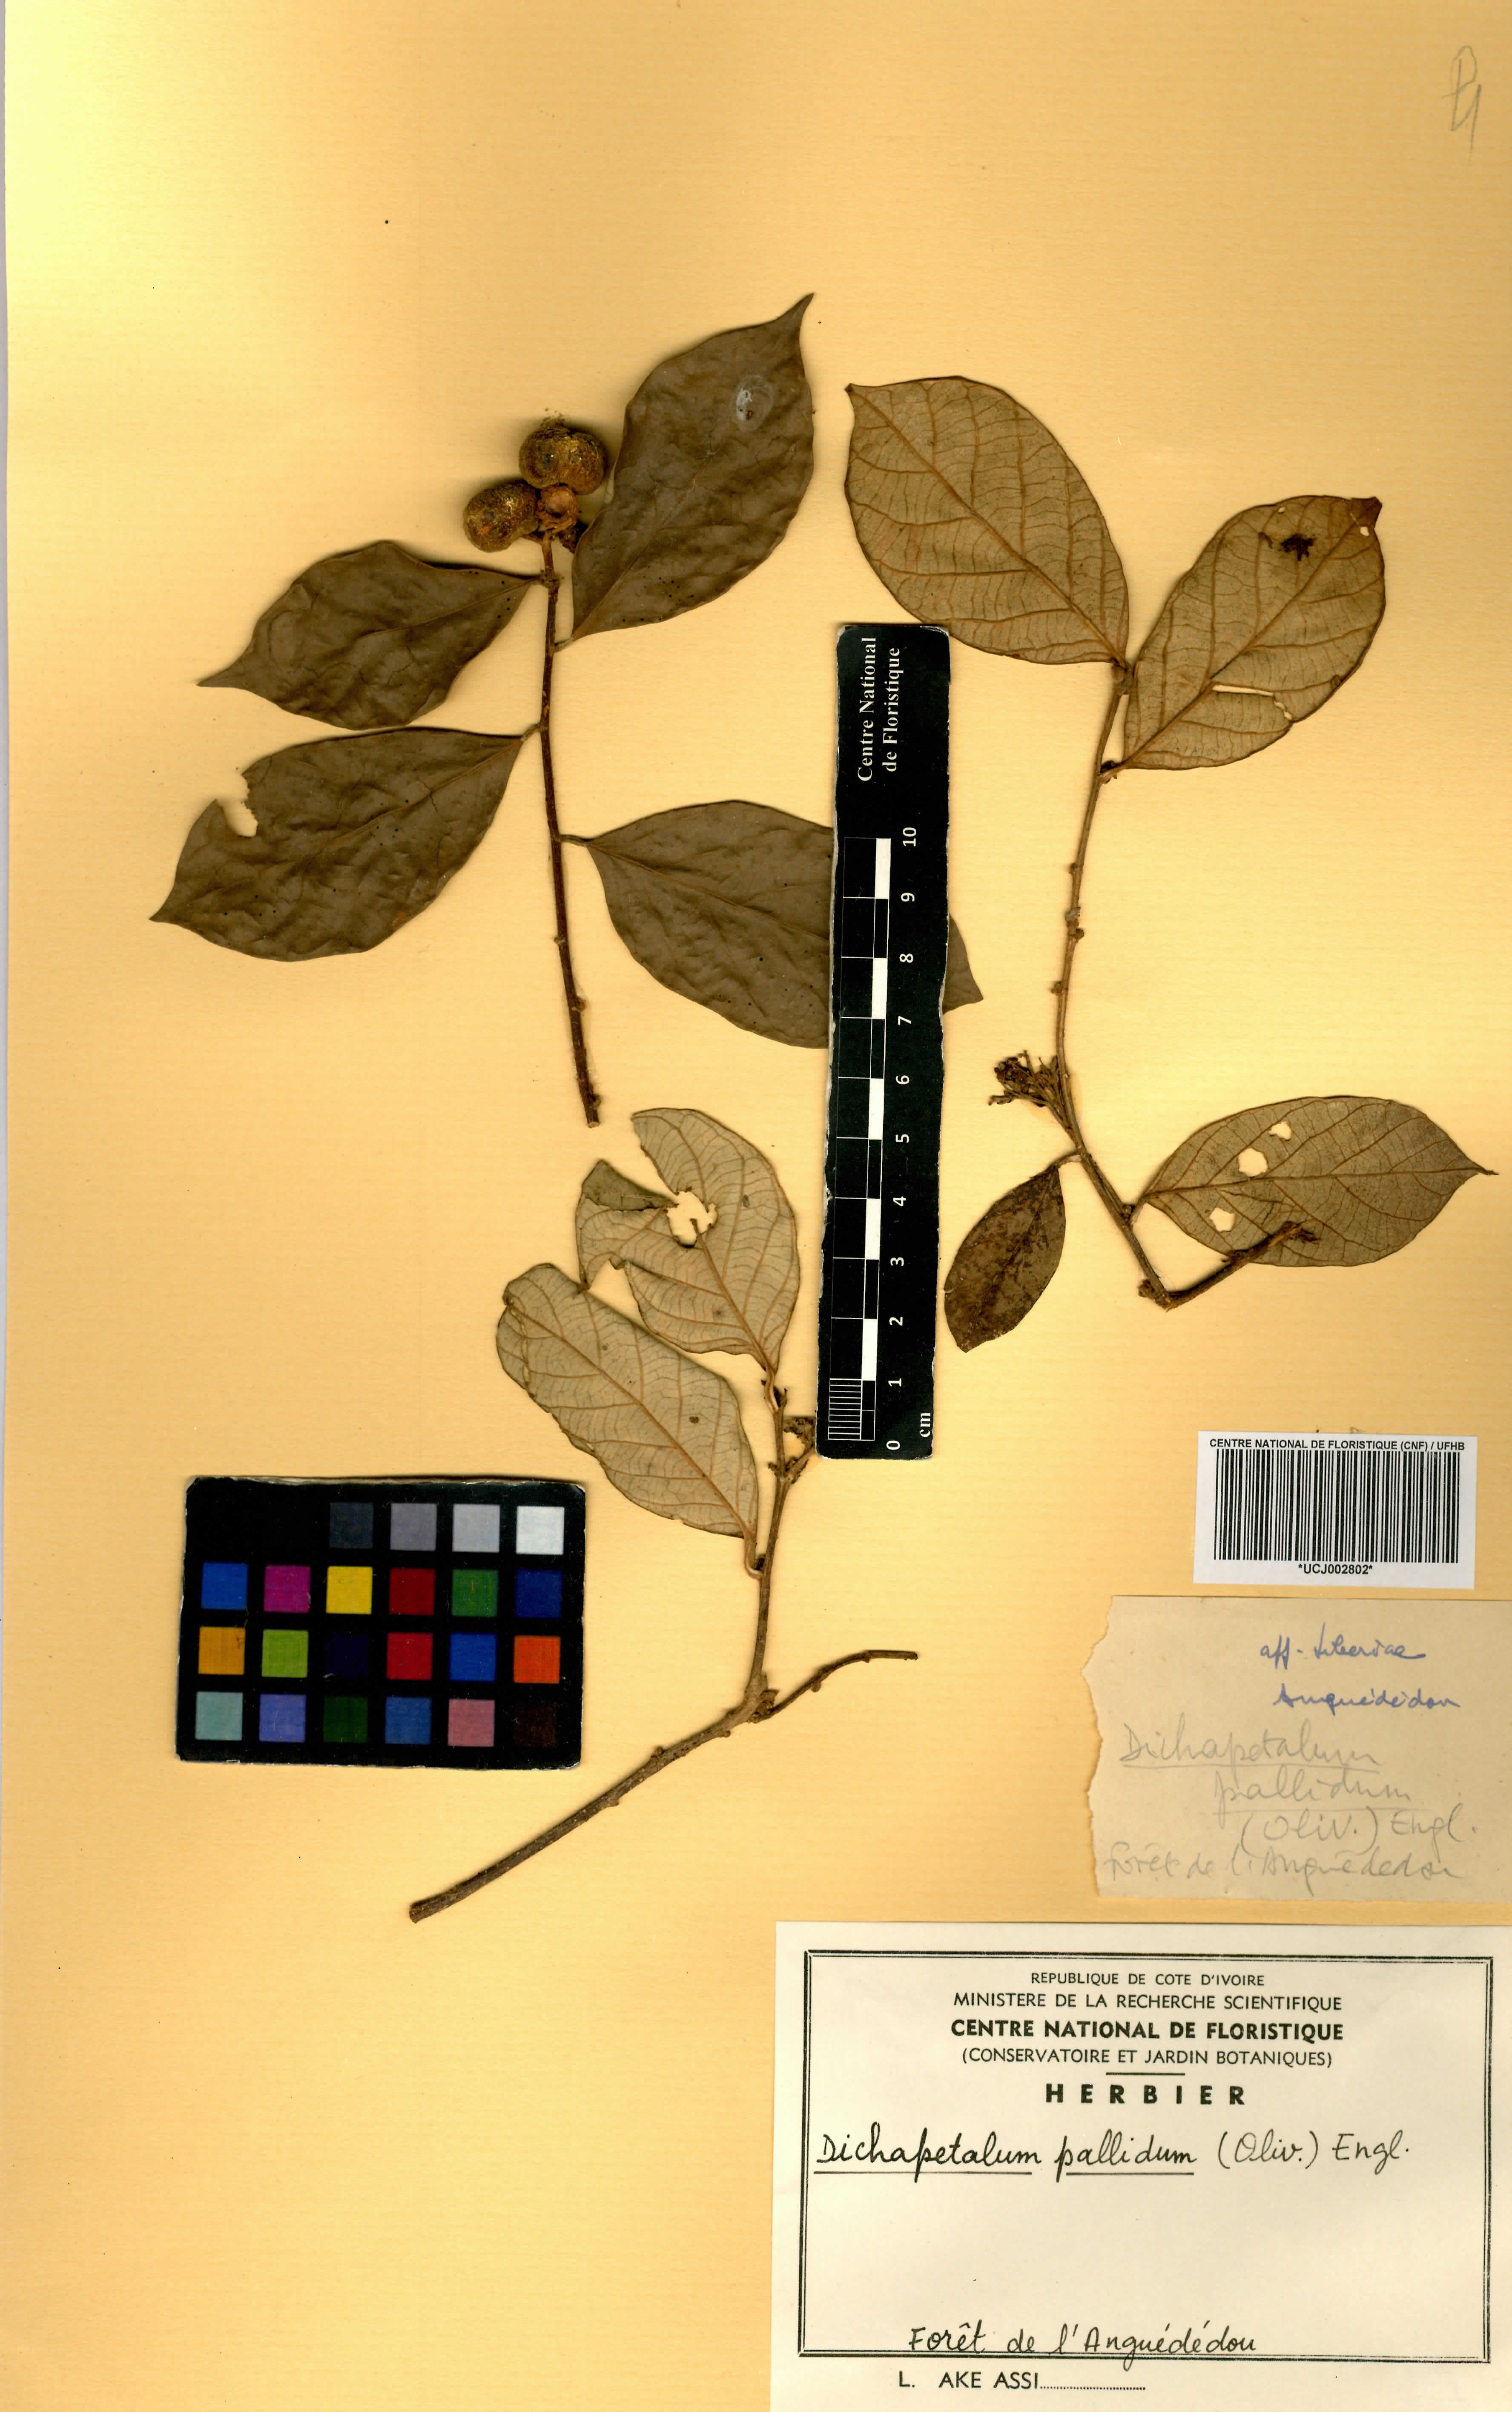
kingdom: Plantae
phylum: Tracheophyta
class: Magnoliopsida
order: Malpighiales
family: Dichapetalaceae
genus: Dichapetalum
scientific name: Dichapetalum pallidum
